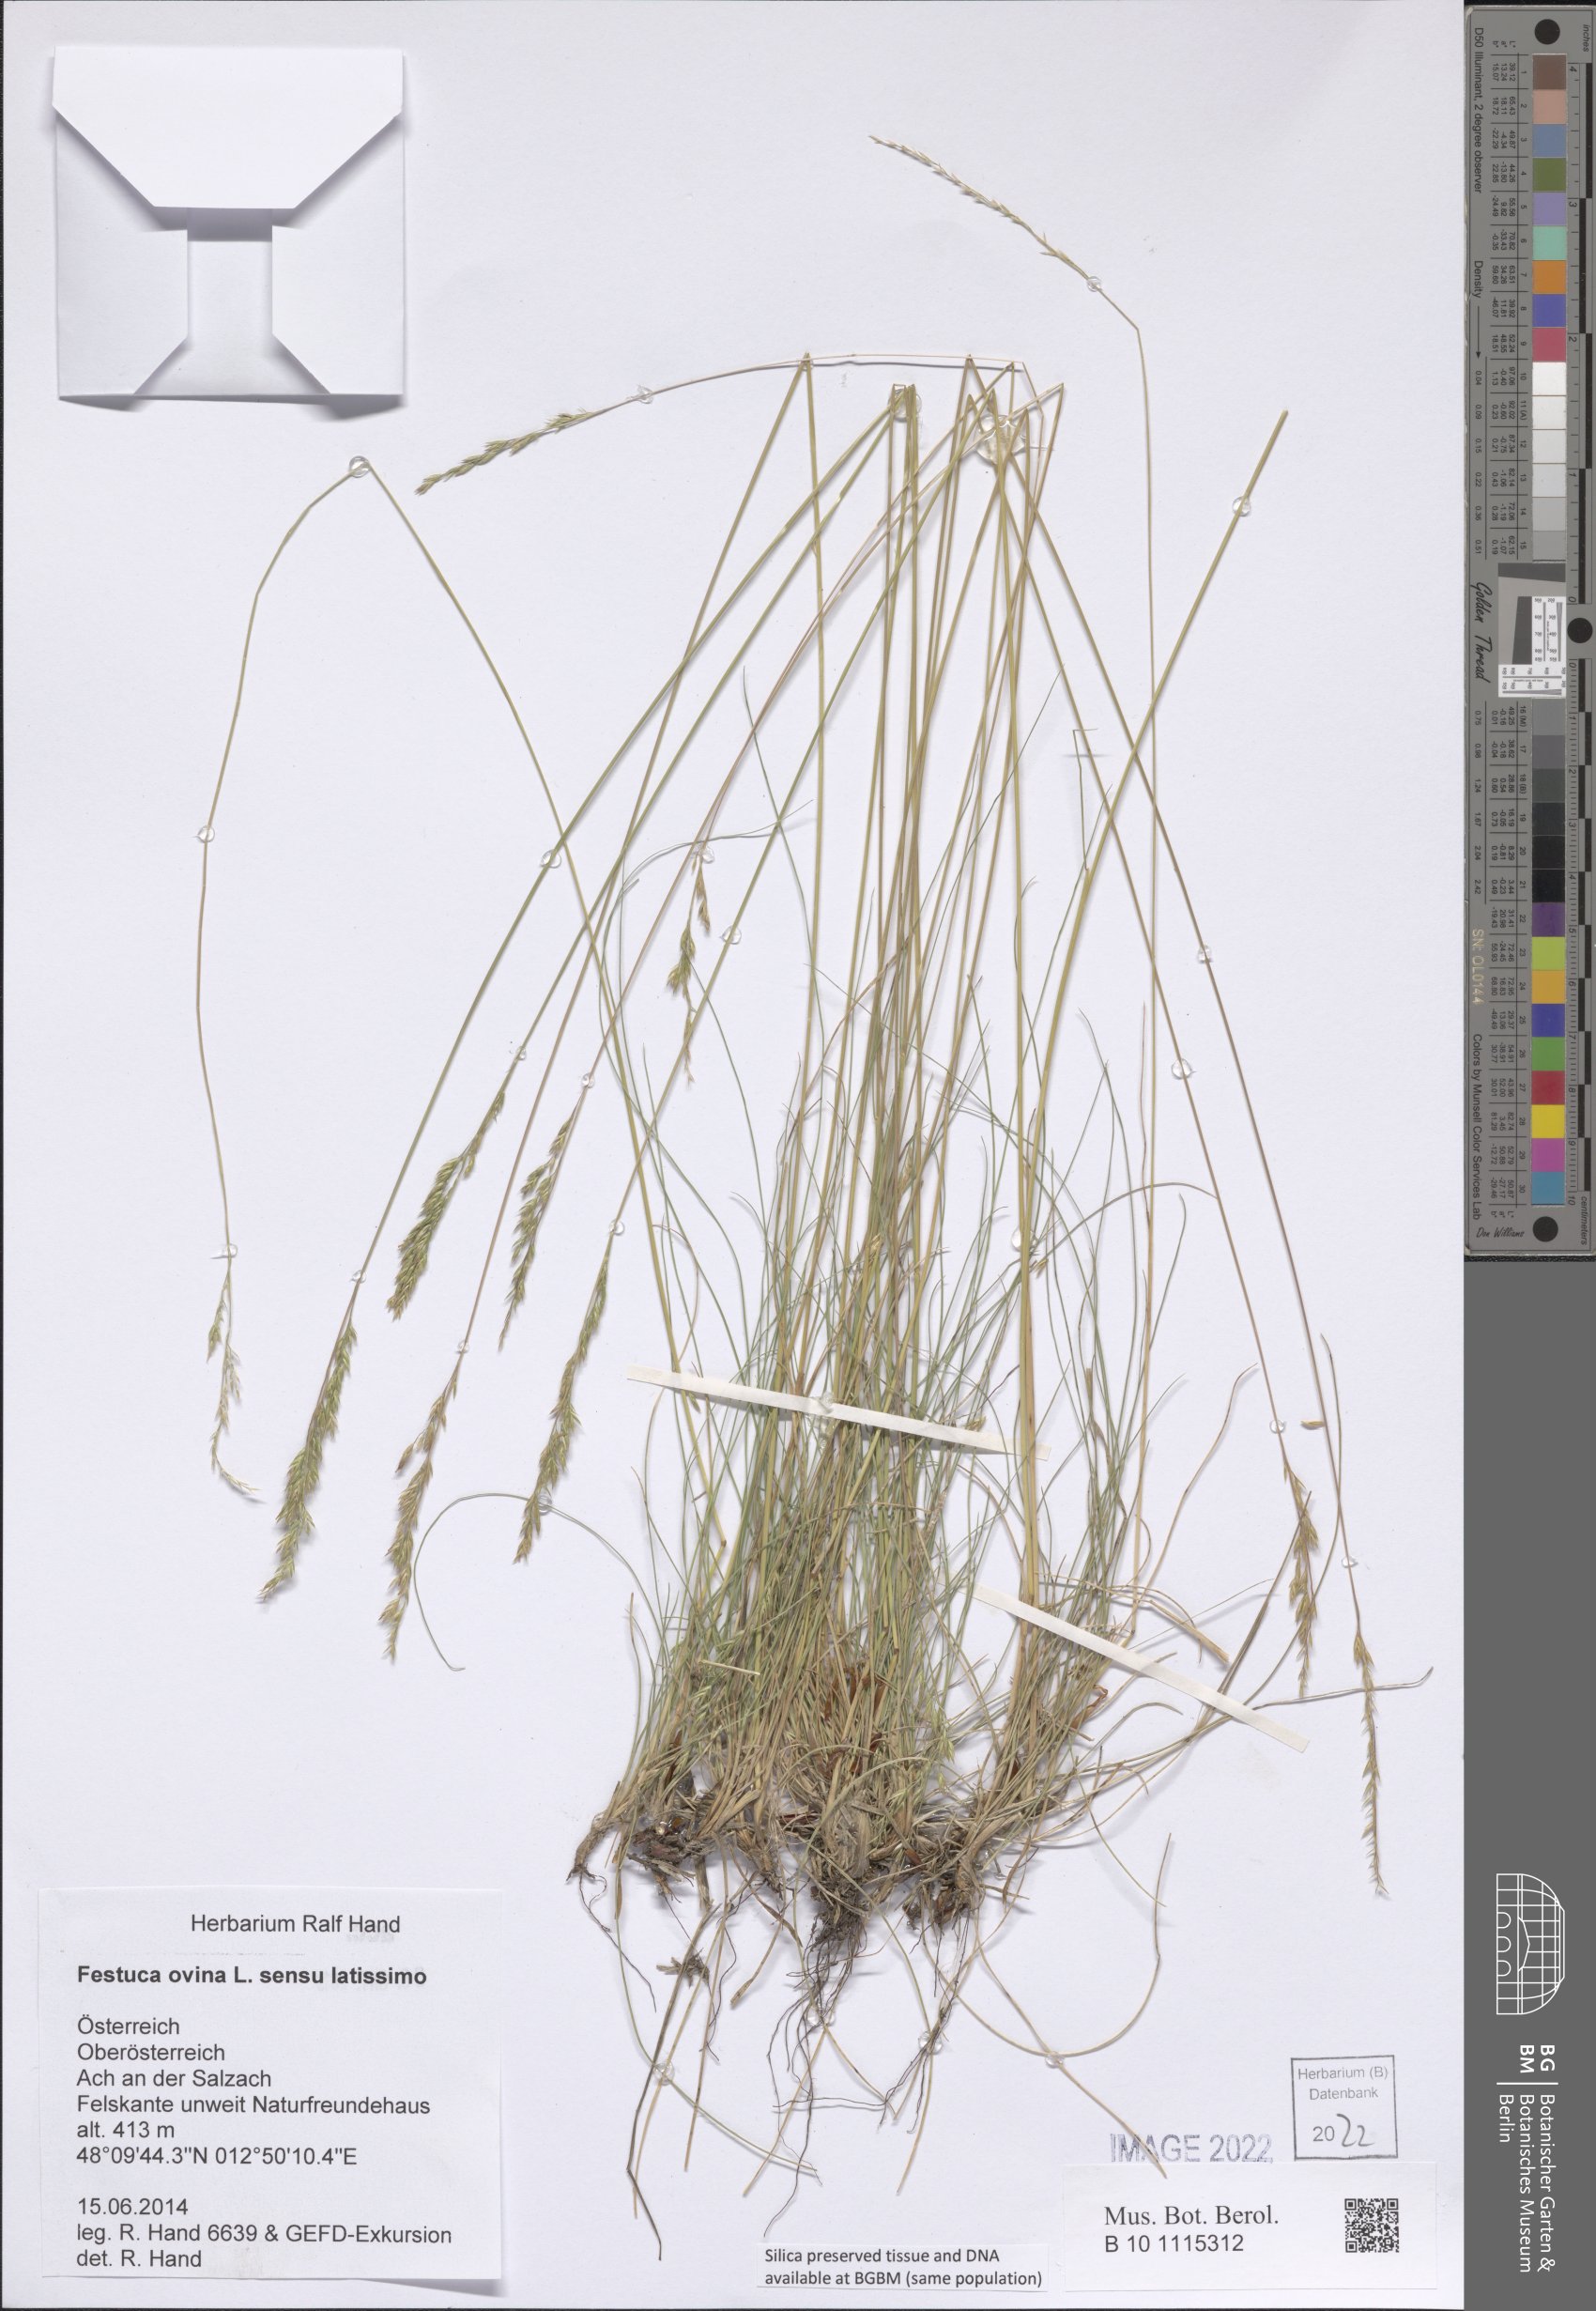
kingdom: Plantae
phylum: Tracheophyta
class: Liliopsida
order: Poales
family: Poaceae
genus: Festuca
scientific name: Festuca ovina
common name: Sheep fescue
